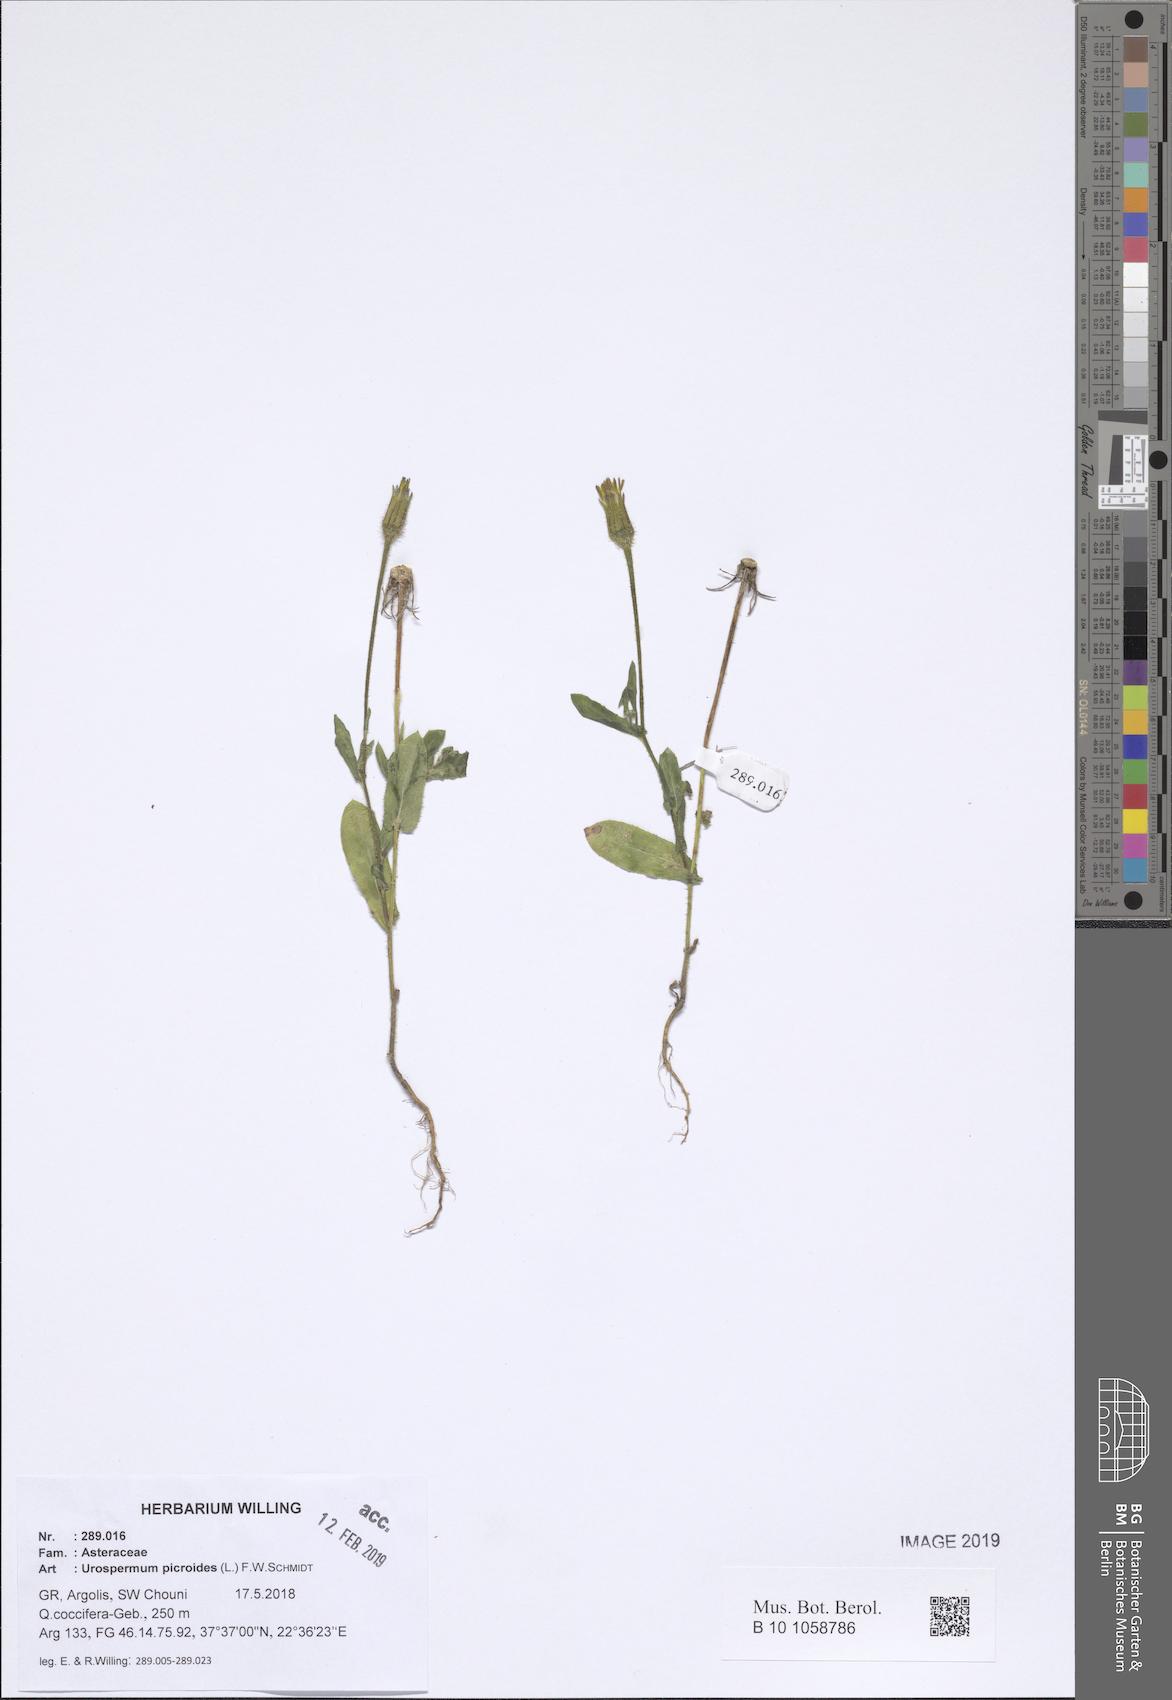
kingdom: Plantae
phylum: Tracheophyta
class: Magnoliopsida
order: Asterales
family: Asteraceae
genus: Urospermum
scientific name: Urospermum picroides
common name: False hawkbit
